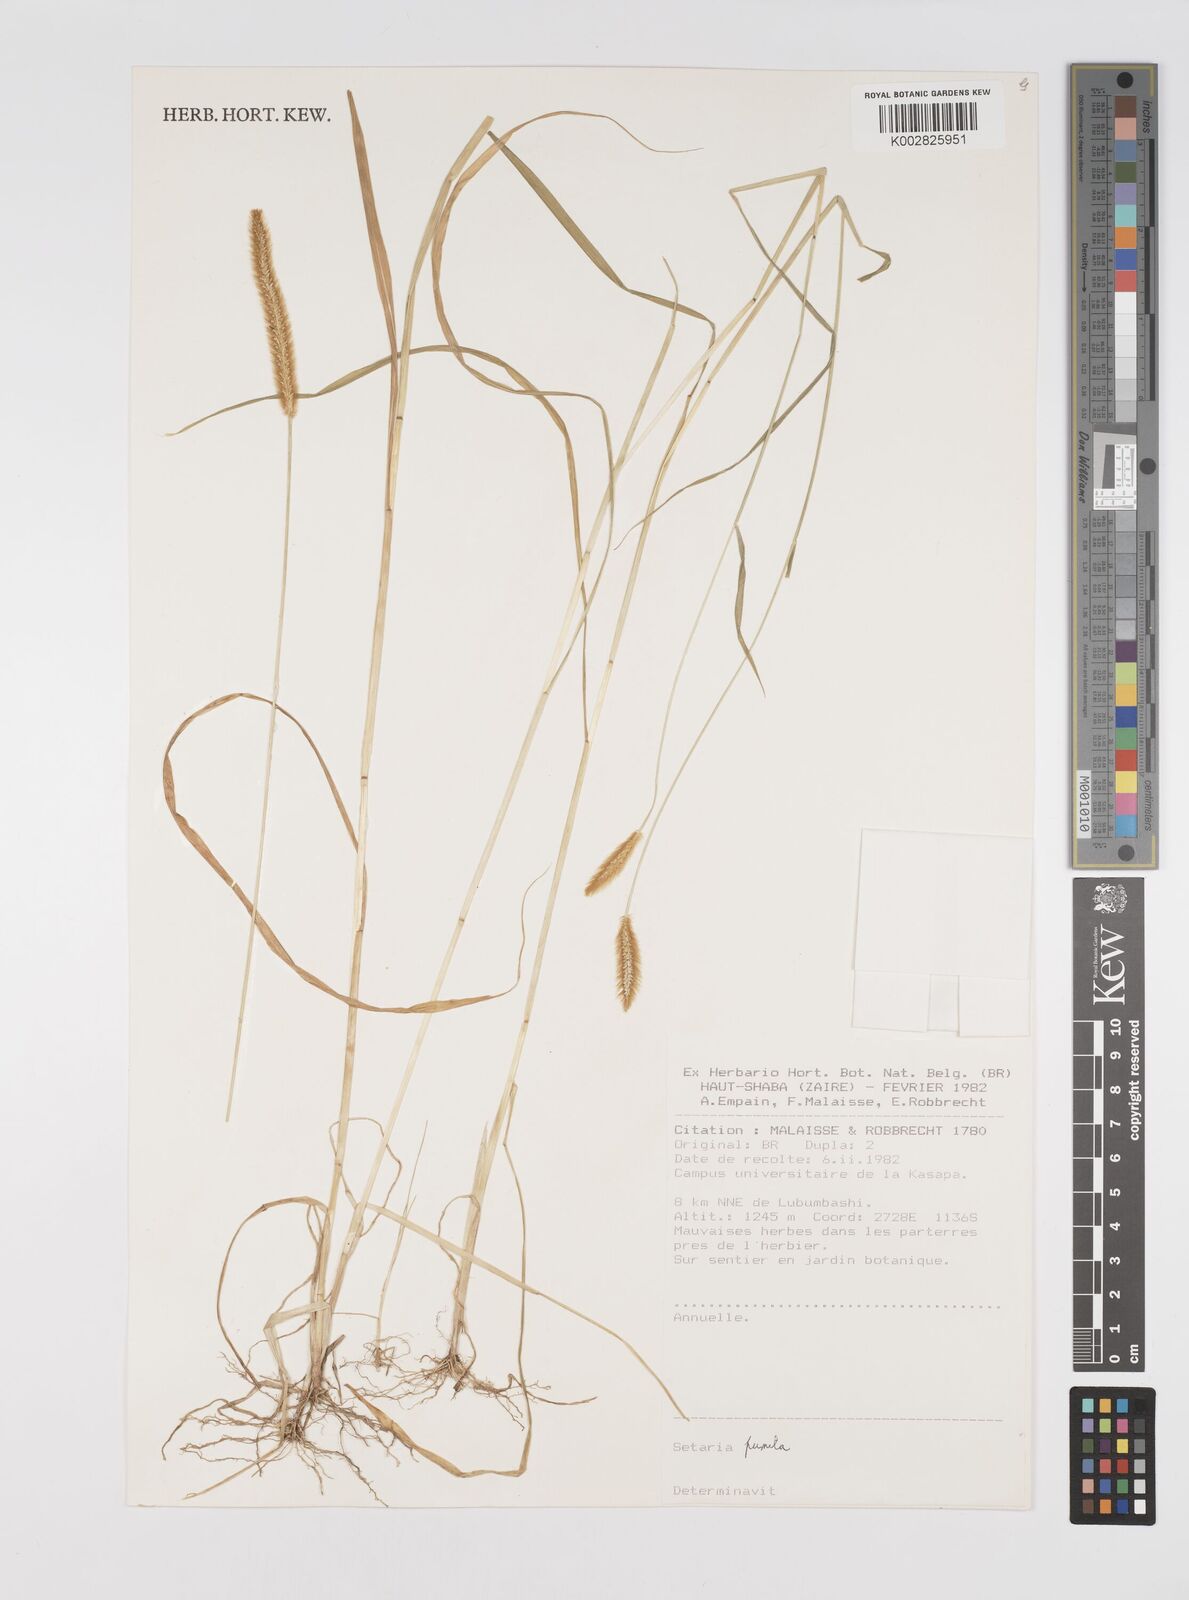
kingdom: Plantae
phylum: Tracheophyta
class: Liliopsida
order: Poales
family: Poaceae
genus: Setaria
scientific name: Setaria pumila
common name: Yellow bristle-grass
